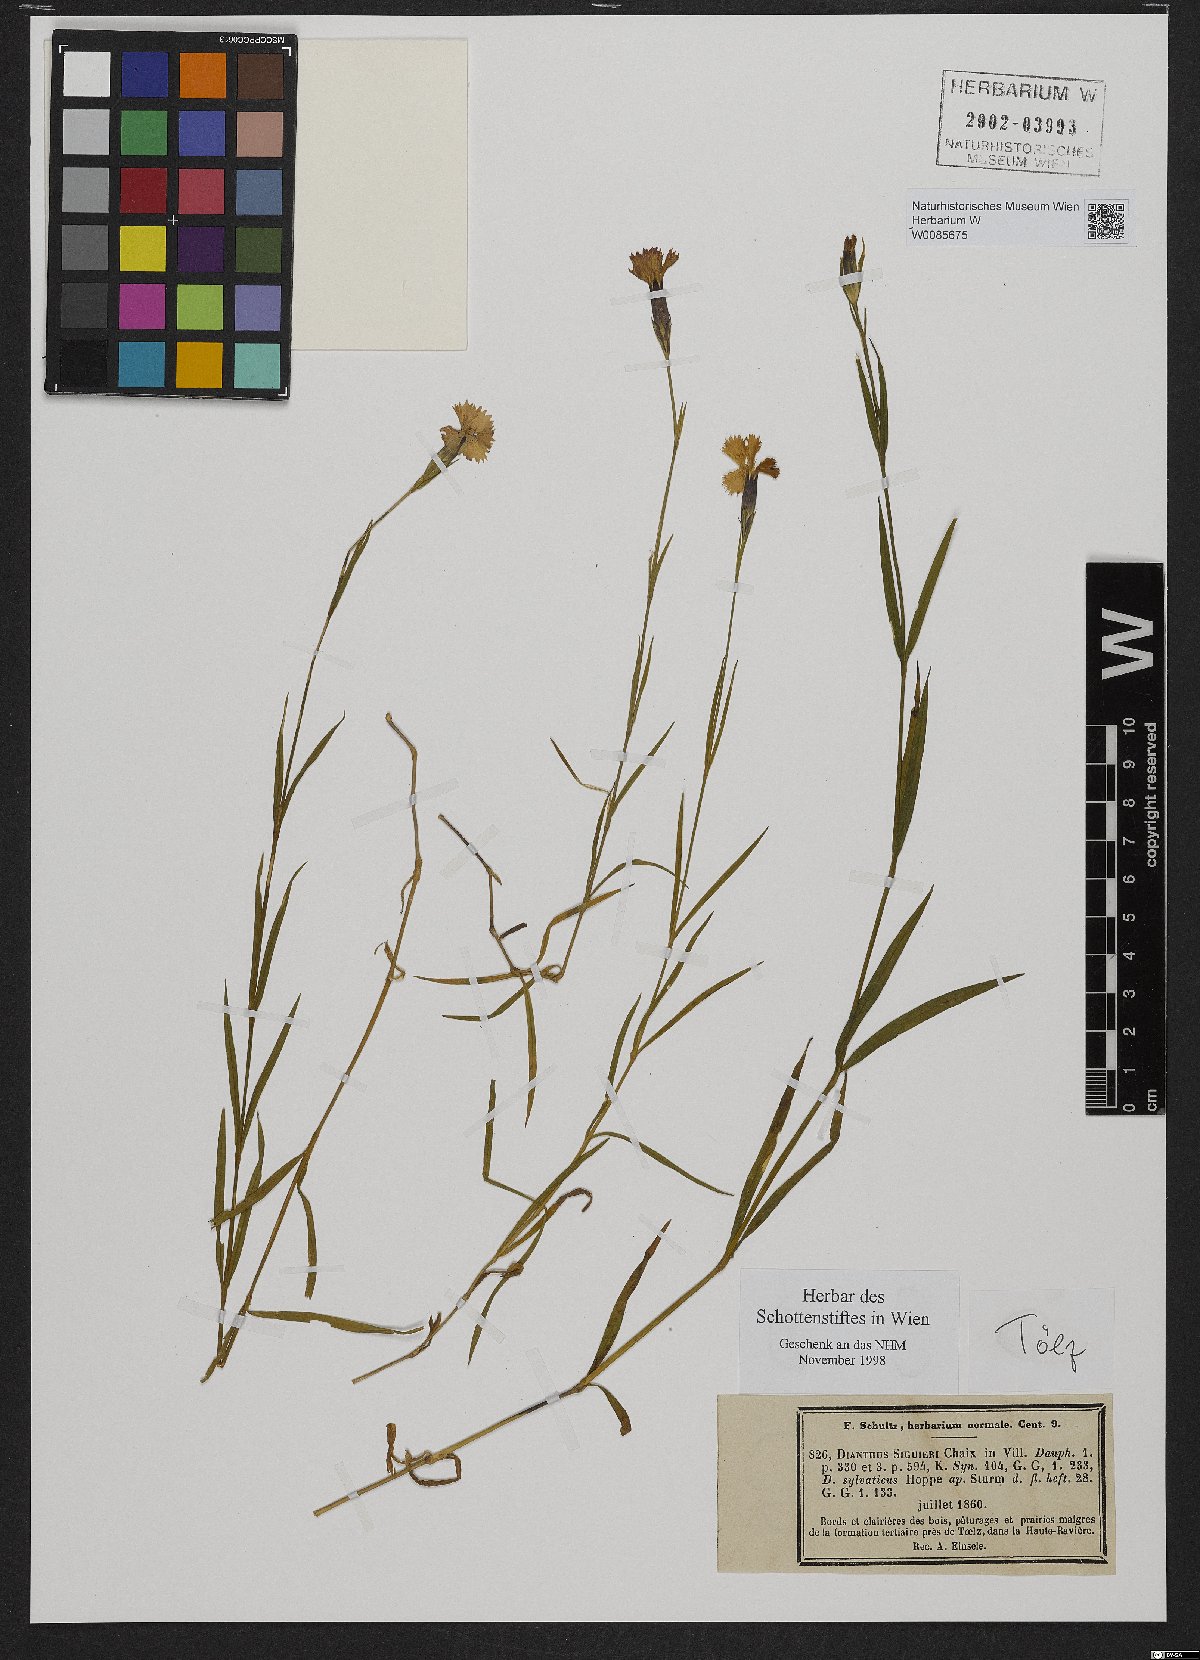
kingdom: Plantae
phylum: Tracheophyta
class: Magnoliopsida
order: Caryophyllales
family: Caryophyllaceae
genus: Dianthus
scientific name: Dianthus seguieri
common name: Ragged pink
